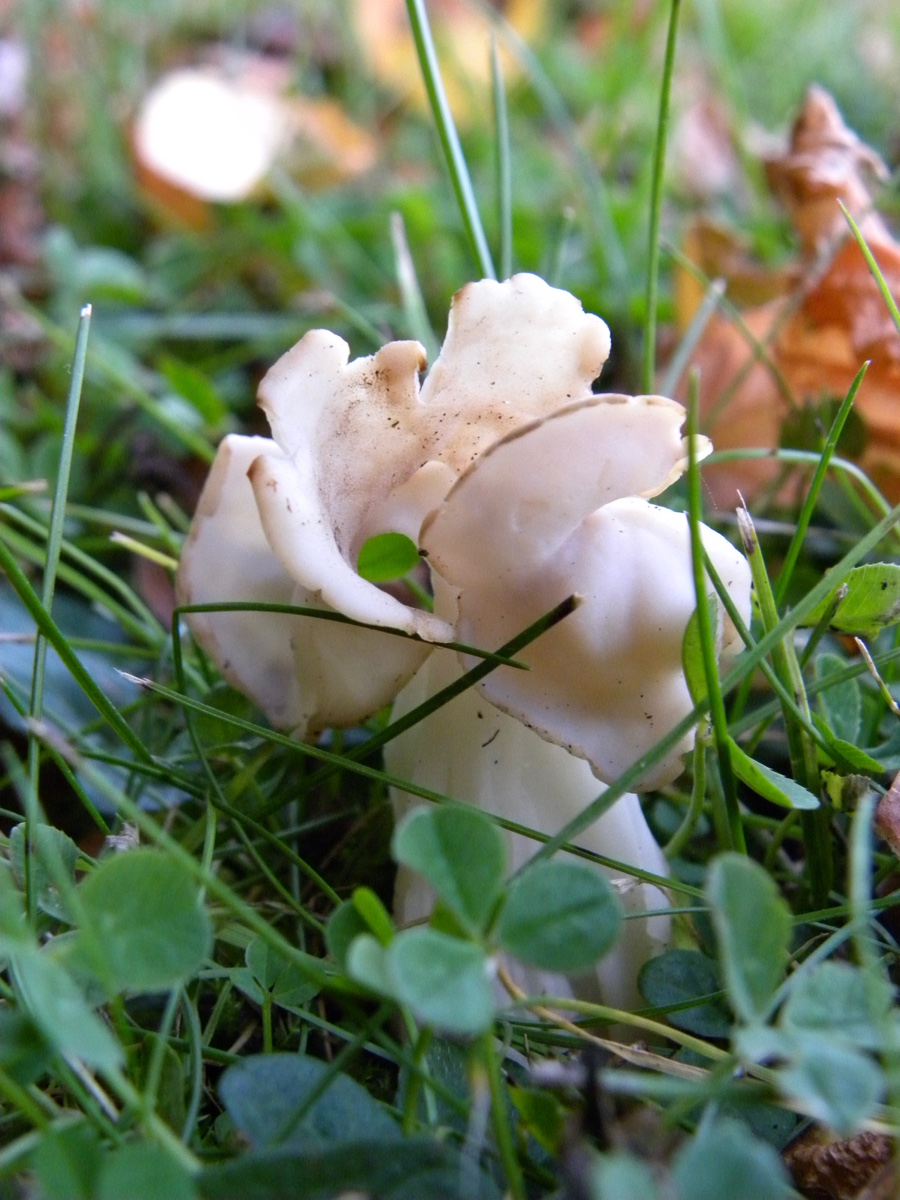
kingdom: Fungi
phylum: Ascomycota
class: Pezizomycetes
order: Pezizales
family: Helvellaceae
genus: Helvella
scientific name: Helvella crispa
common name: kruset foldhat
